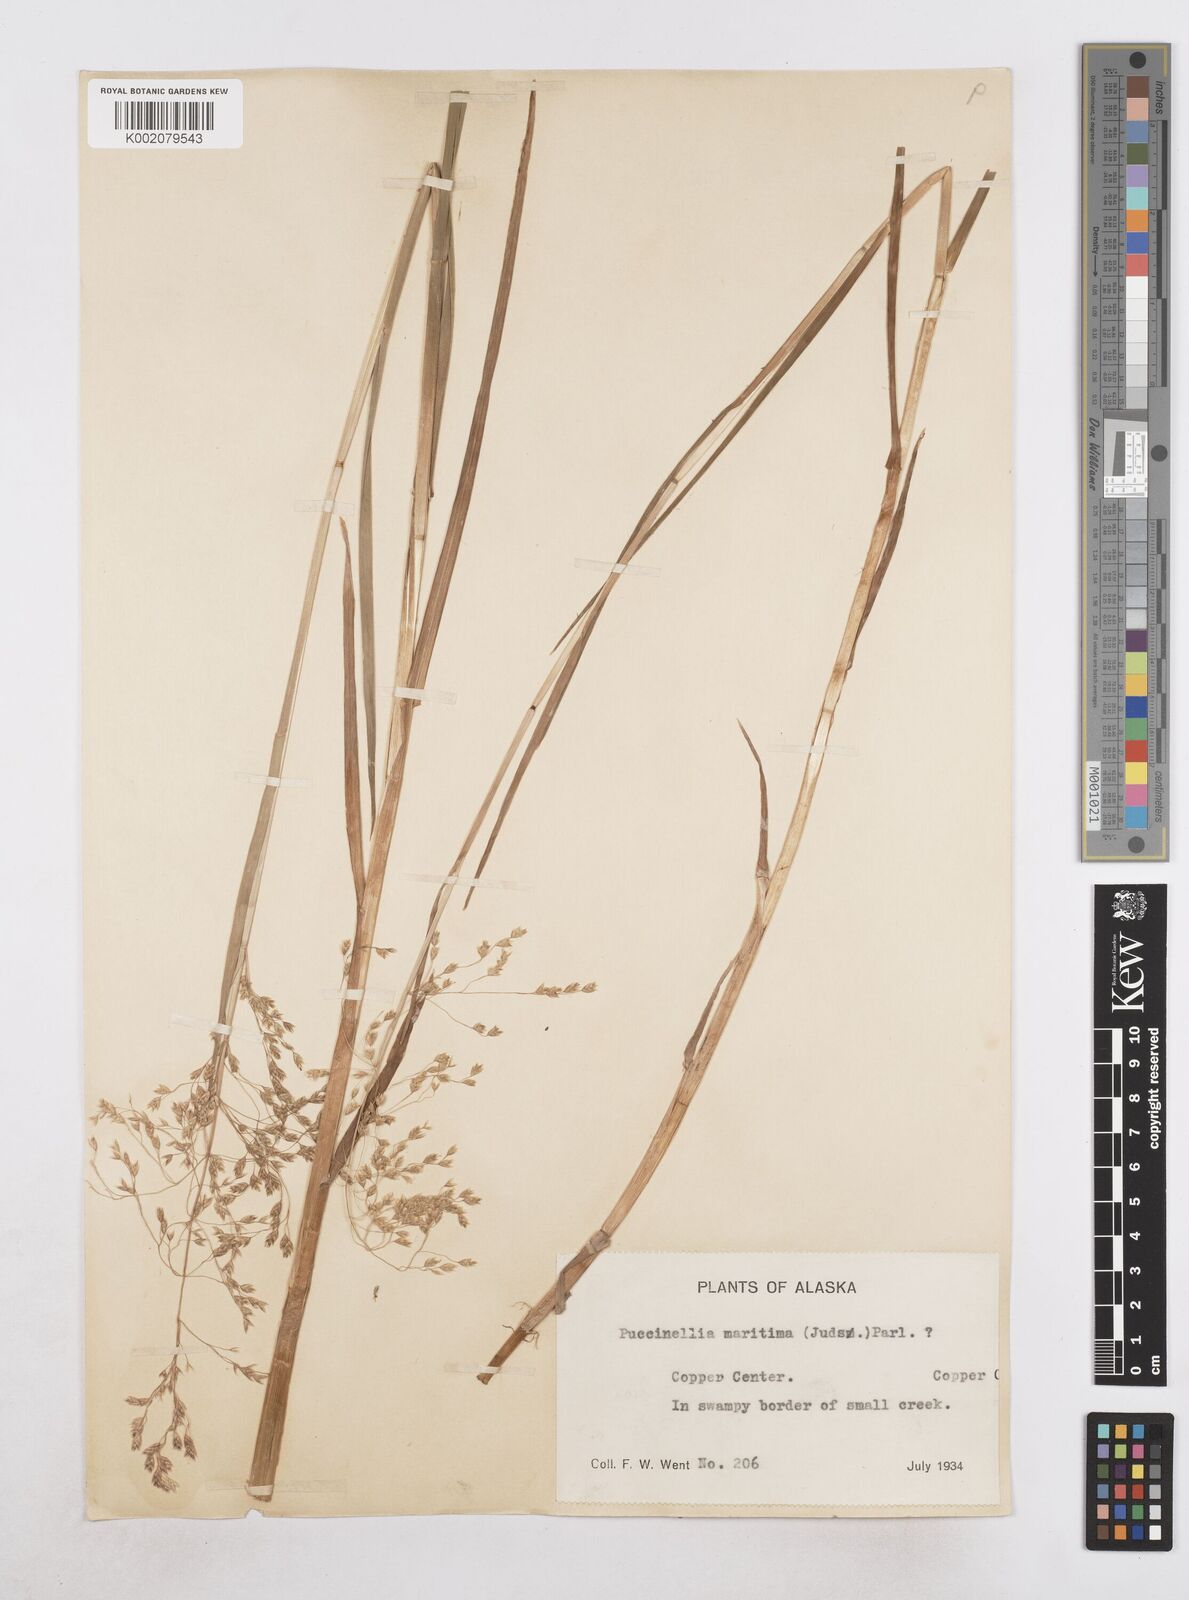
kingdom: Plantae
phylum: Tracheophyta
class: Liliopsida
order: Poales
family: Poaceae
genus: Dupontia
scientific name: Dupontia fulva
